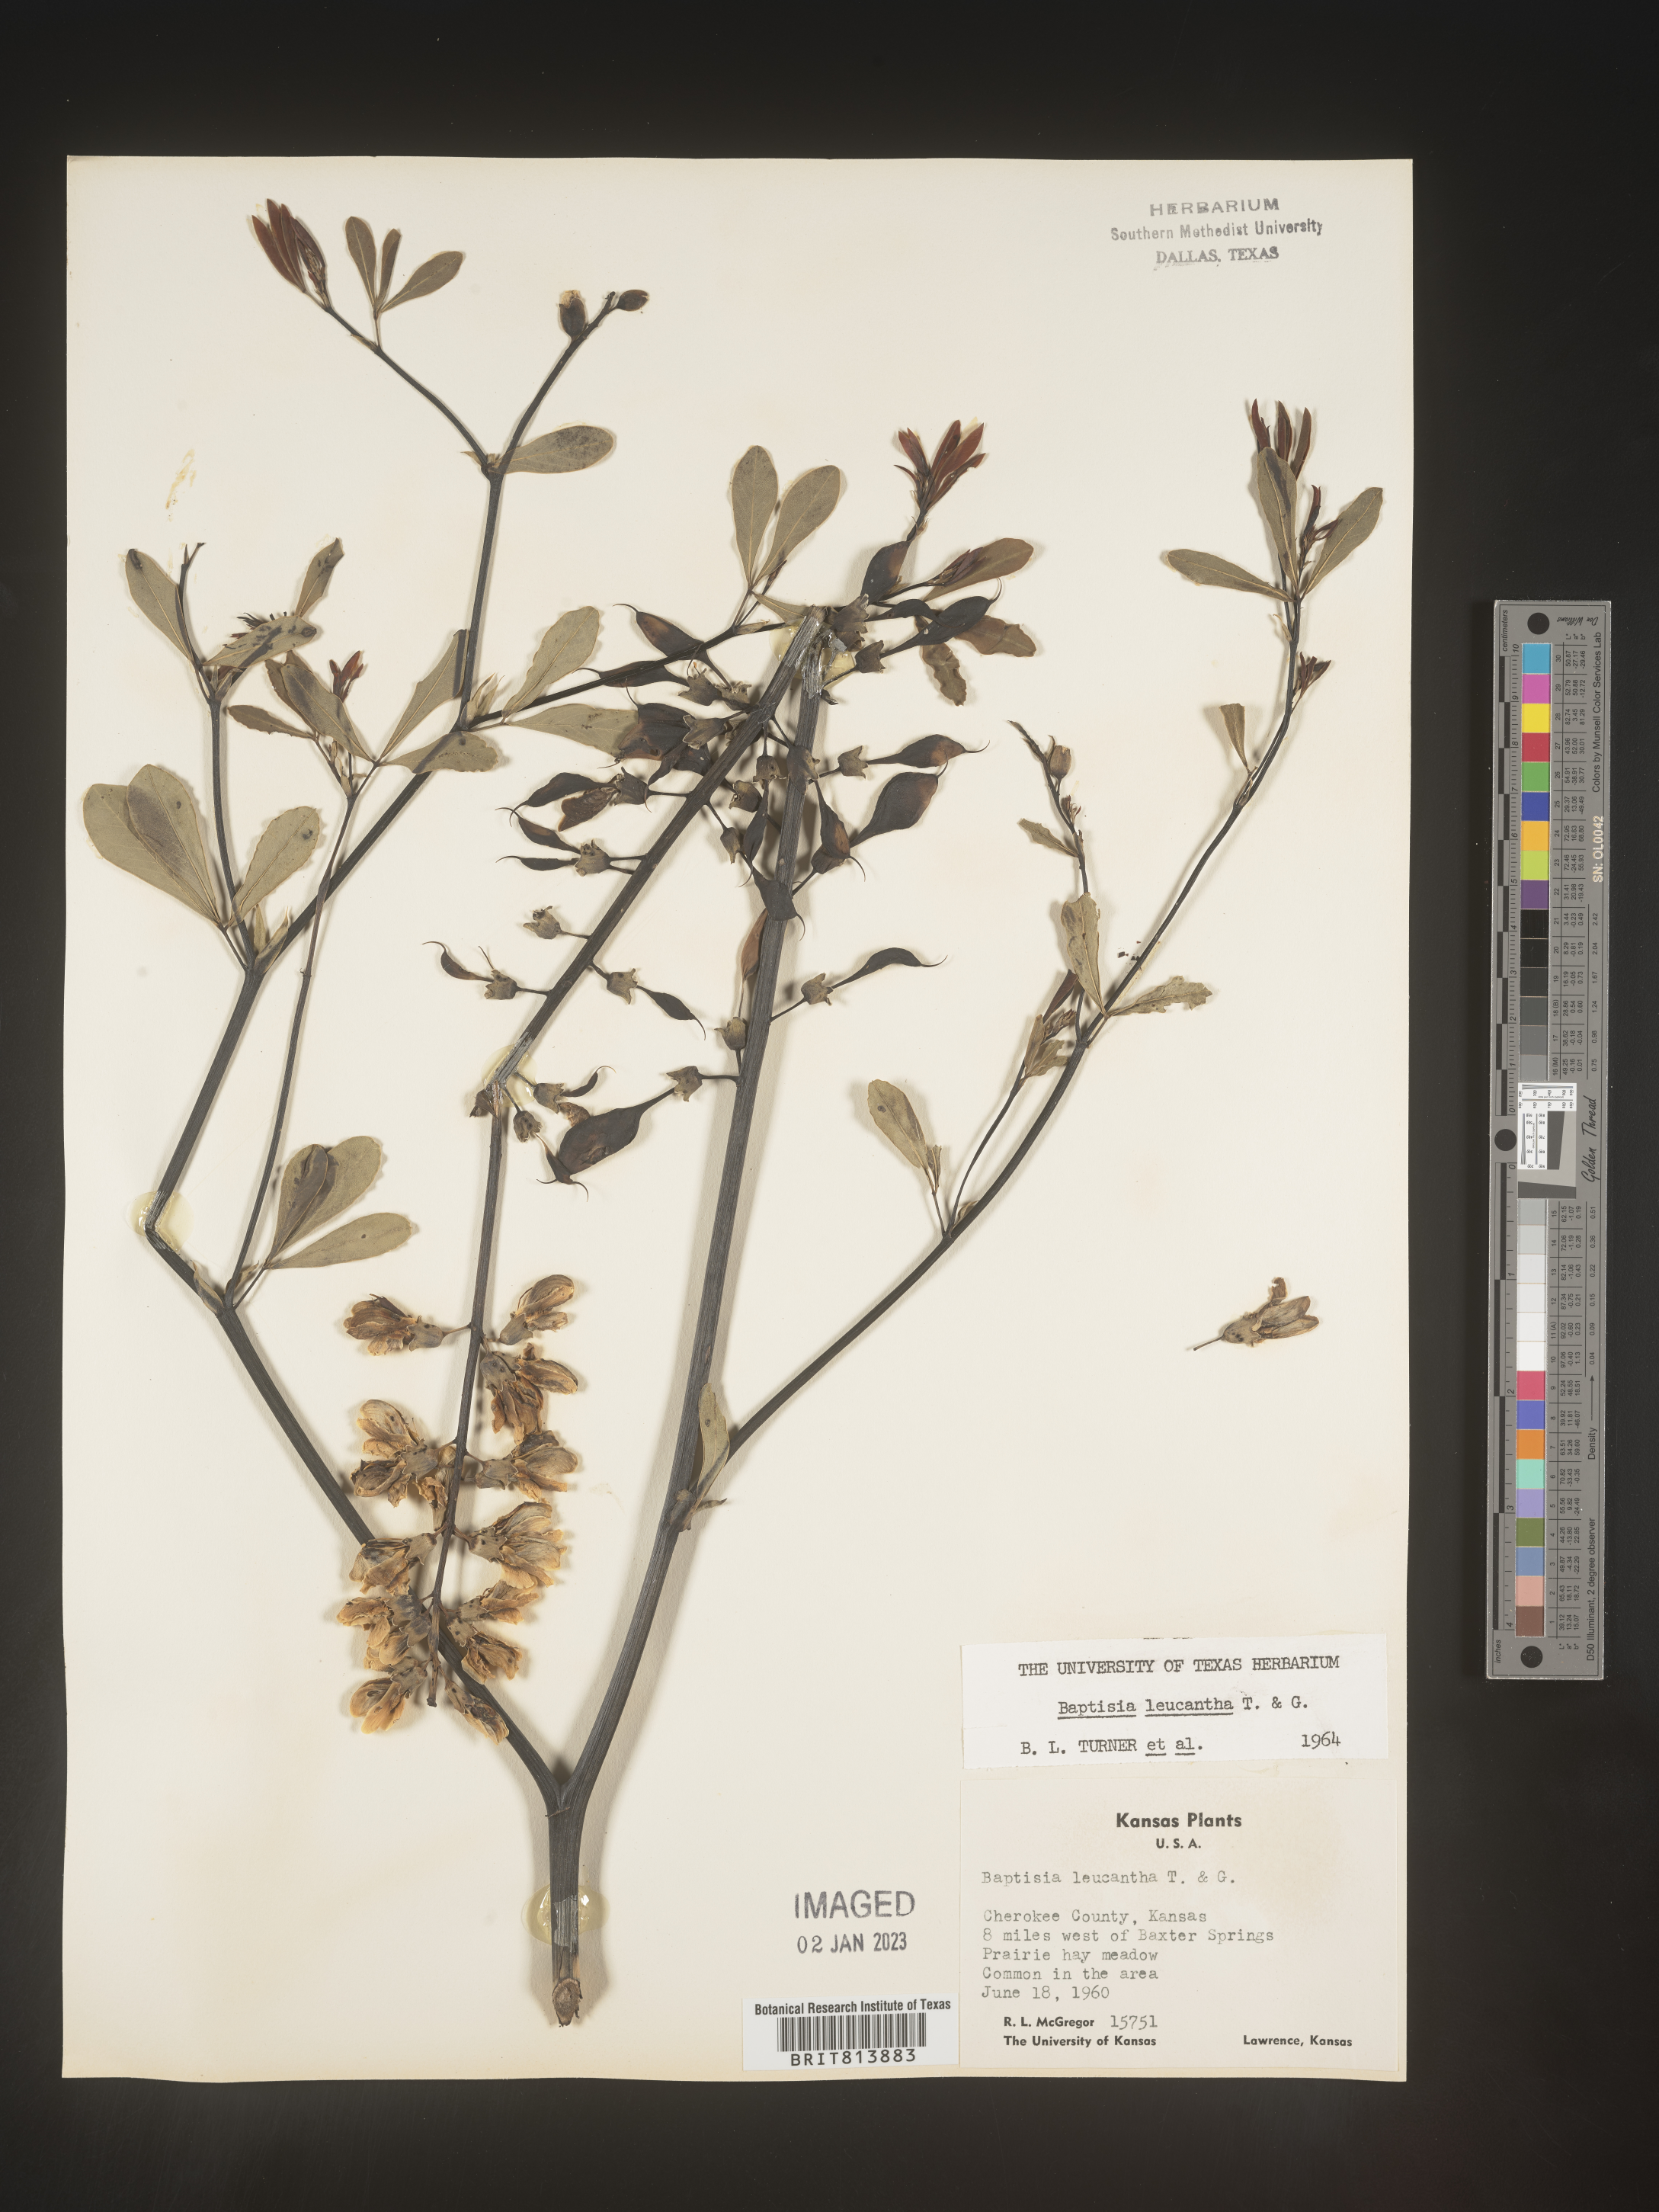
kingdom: Plantae
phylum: Tracheophyta
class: Magnoliopsida
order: Fabales
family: Fabaceae
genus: Baptisia
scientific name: Baptisia alba
